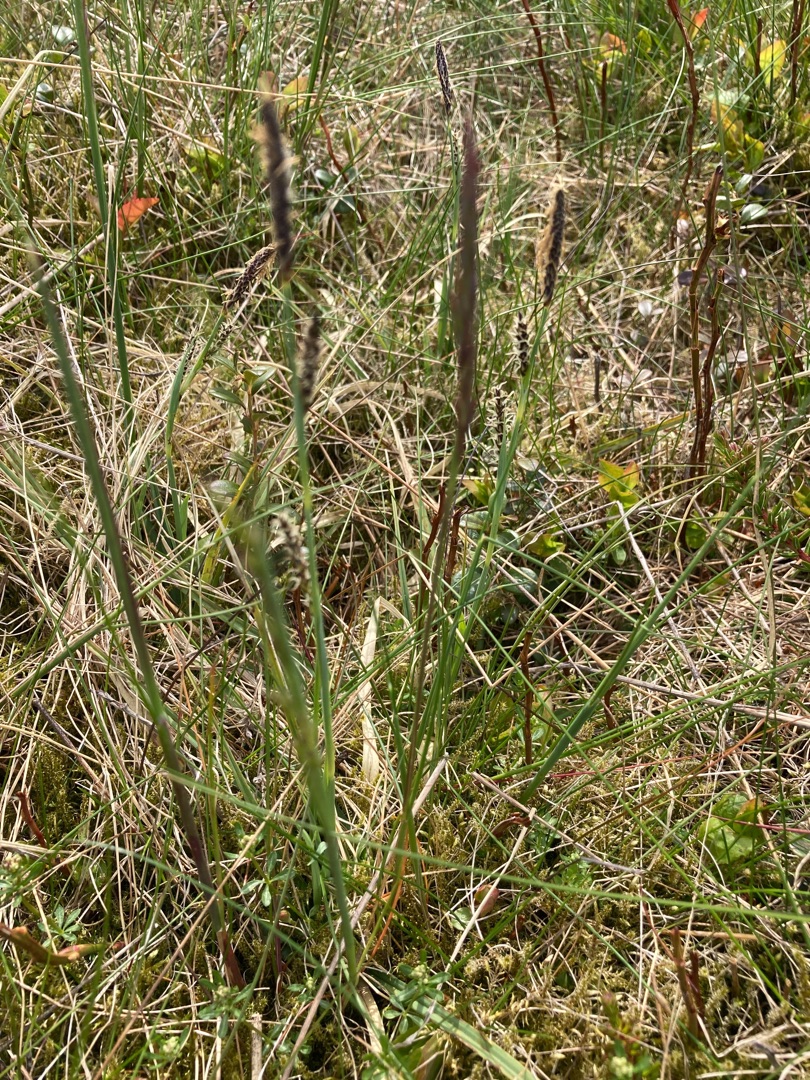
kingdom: Plantae
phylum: Tracheophyta
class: Liliopsida
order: Poales
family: Cyperaceae
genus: Carex
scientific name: Carex flacca
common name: Blågrøn star
